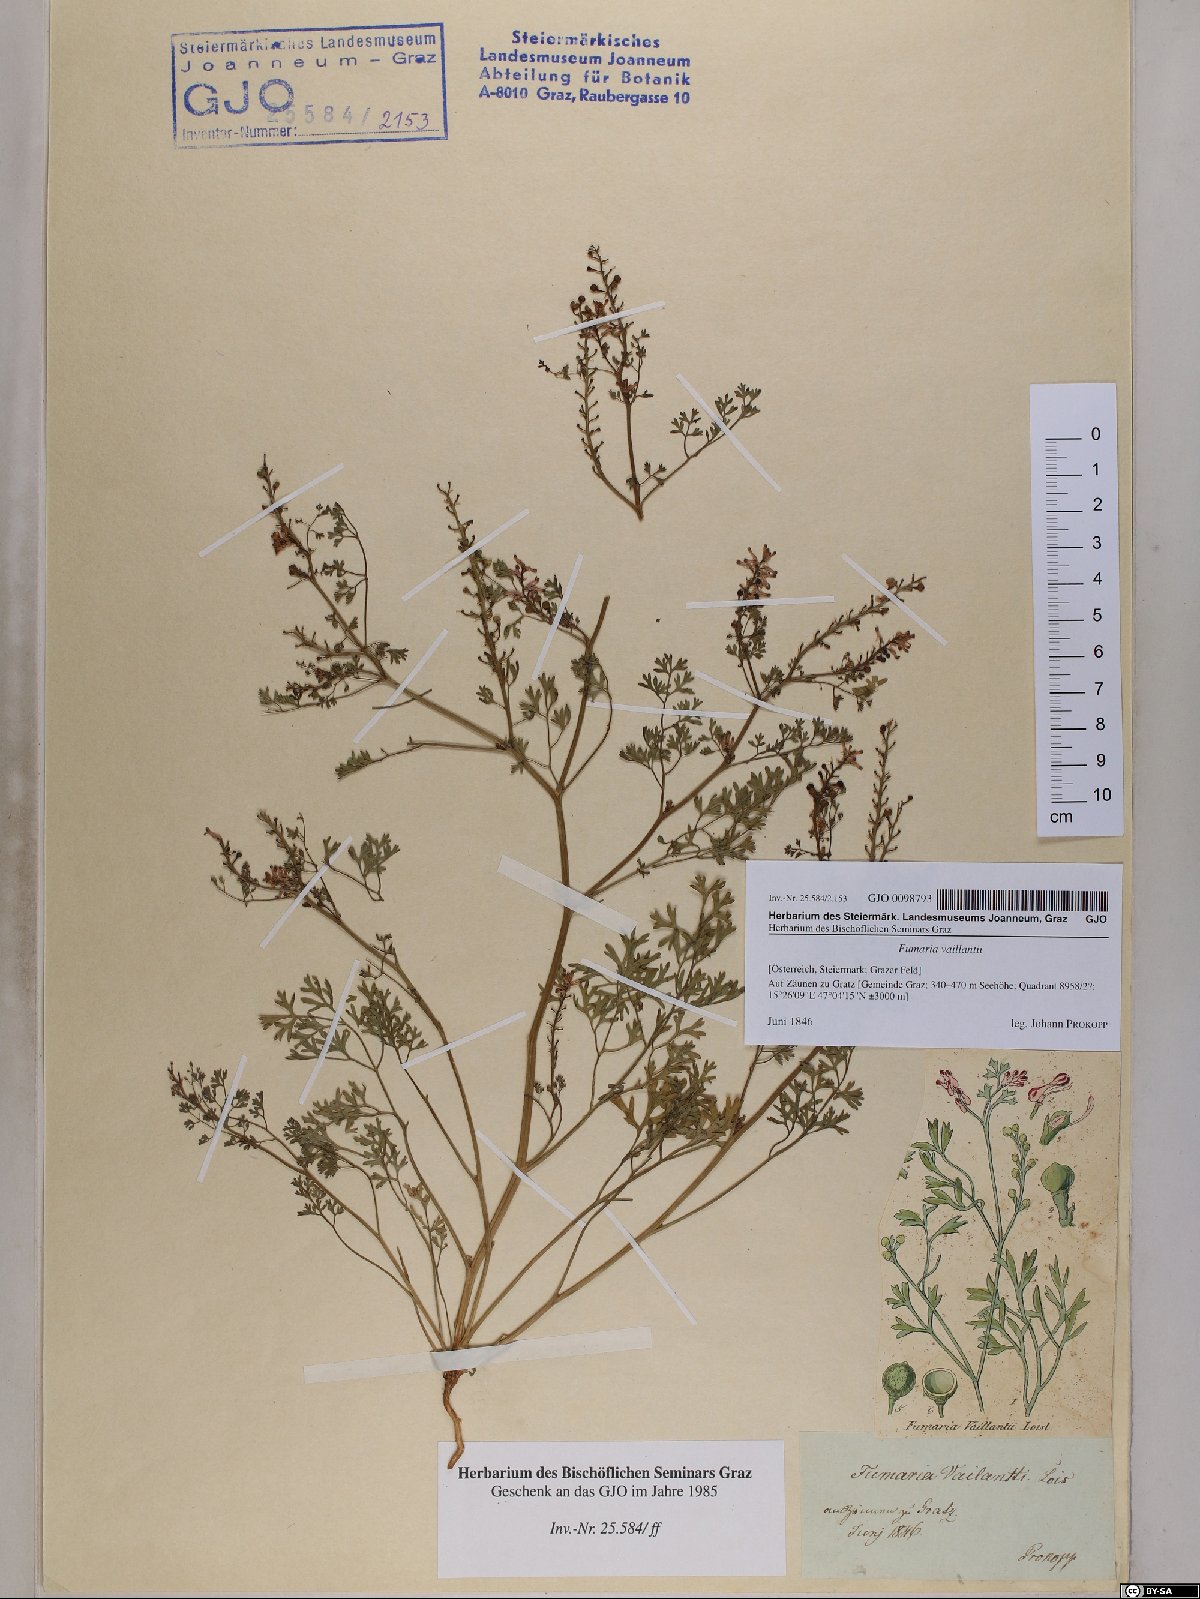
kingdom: Plantae
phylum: Tracheophyta
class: Magnoliopsida
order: Ranunculales
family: Papaveraceae
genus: Fumaria
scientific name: Fumaria vaillantii
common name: Few-flowered fumitory
